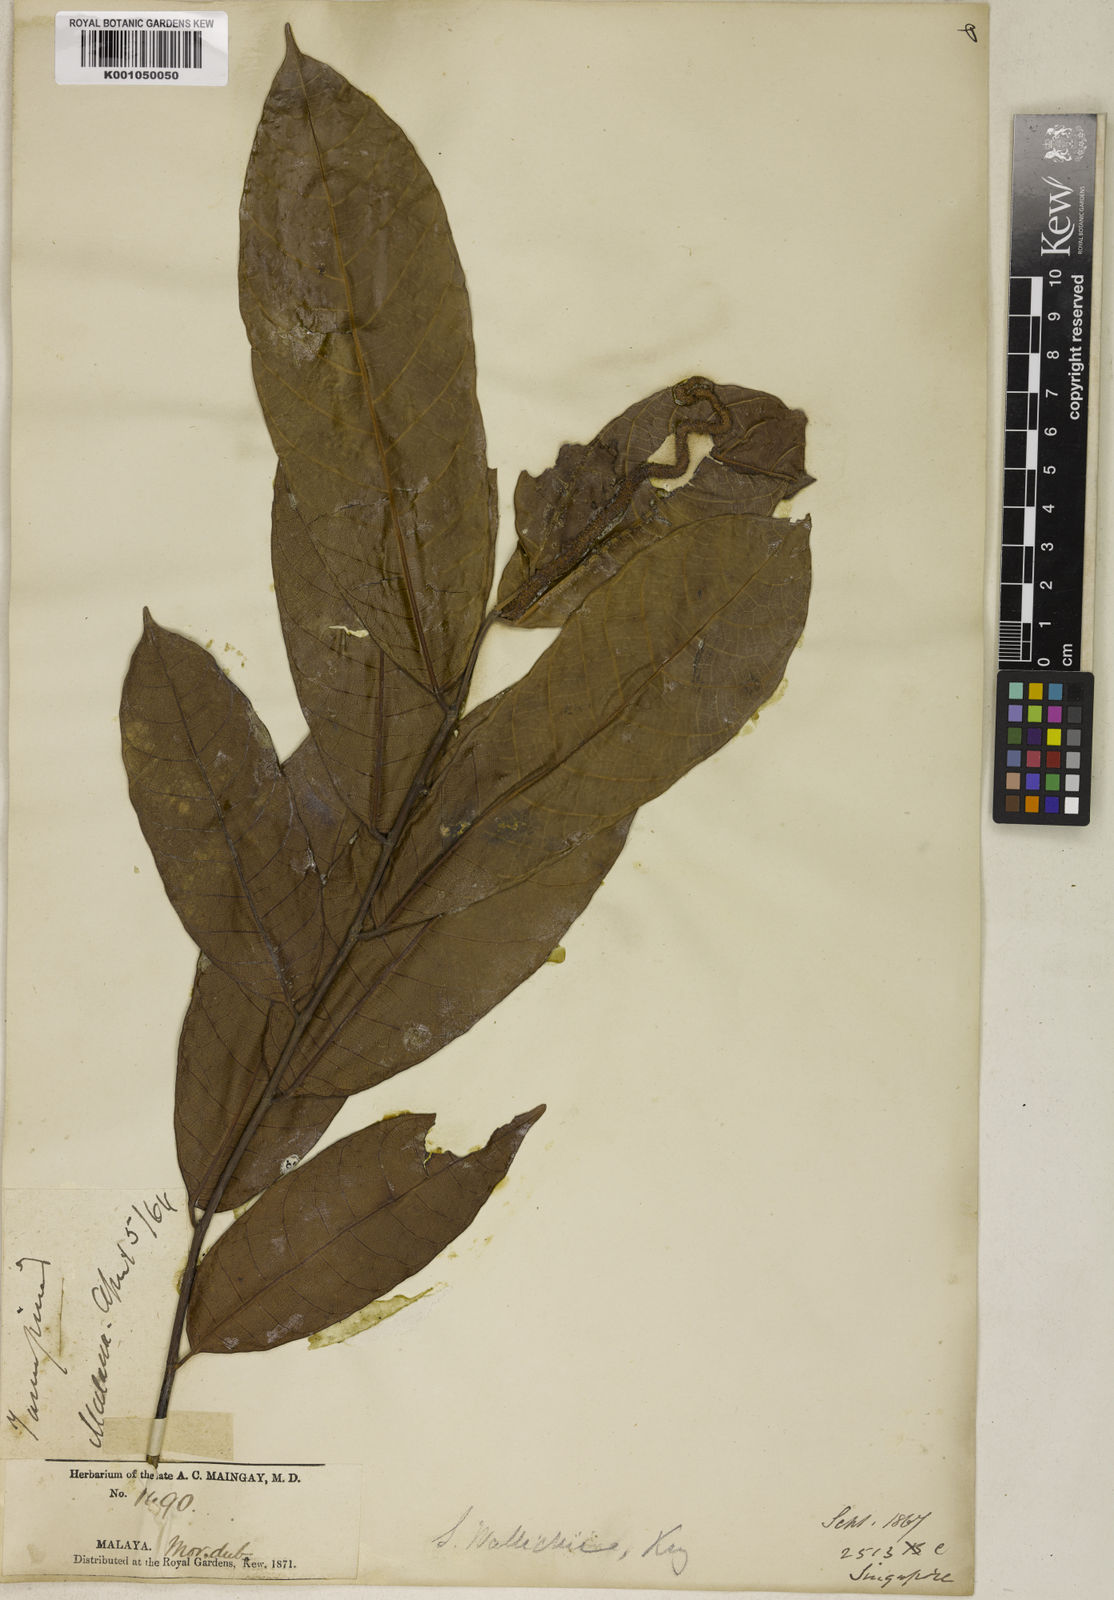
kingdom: Plantae
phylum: Tracheophyta
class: Magnoliopsida
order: Rosales
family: Moraceae
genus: Sloetia
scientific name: Sloetia elongata
